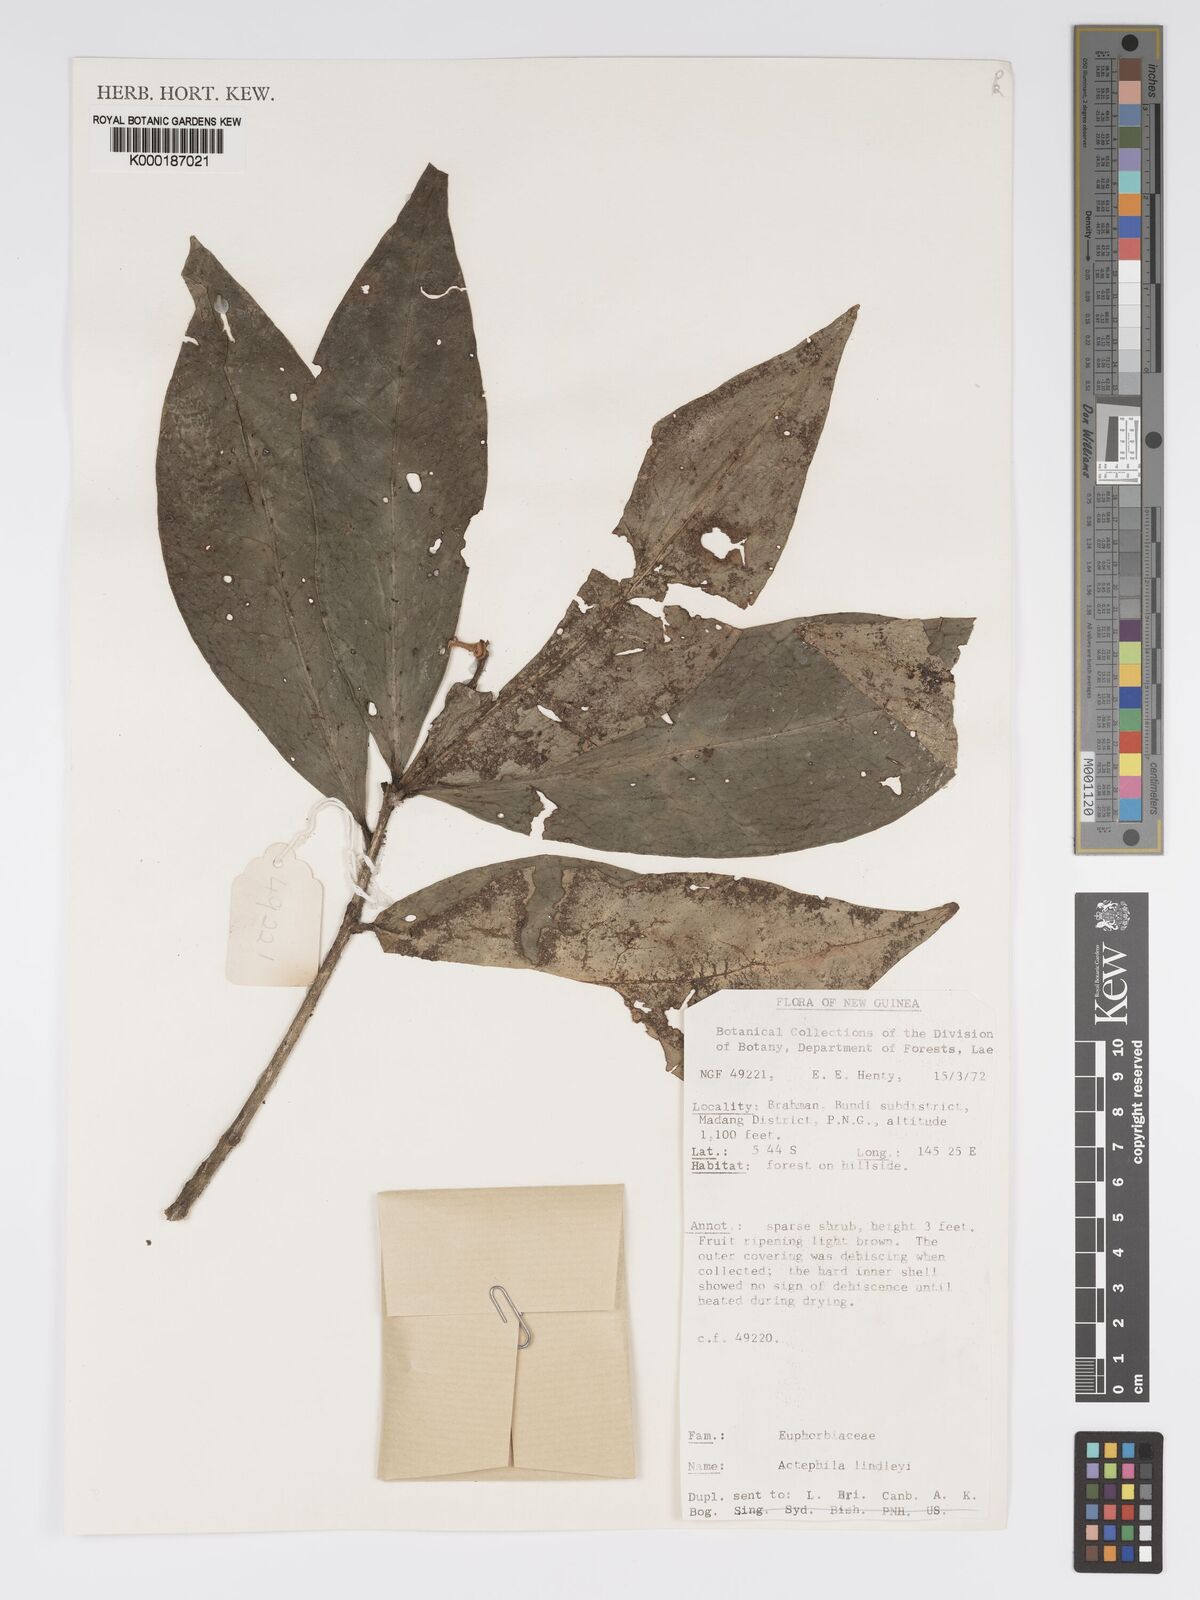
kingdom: Plantae
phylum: Tracheophyta
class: Magnoliopsida
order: Malpighiales
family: Phyllanthaceae
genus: Actephila
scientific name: Actephila lindleyi
